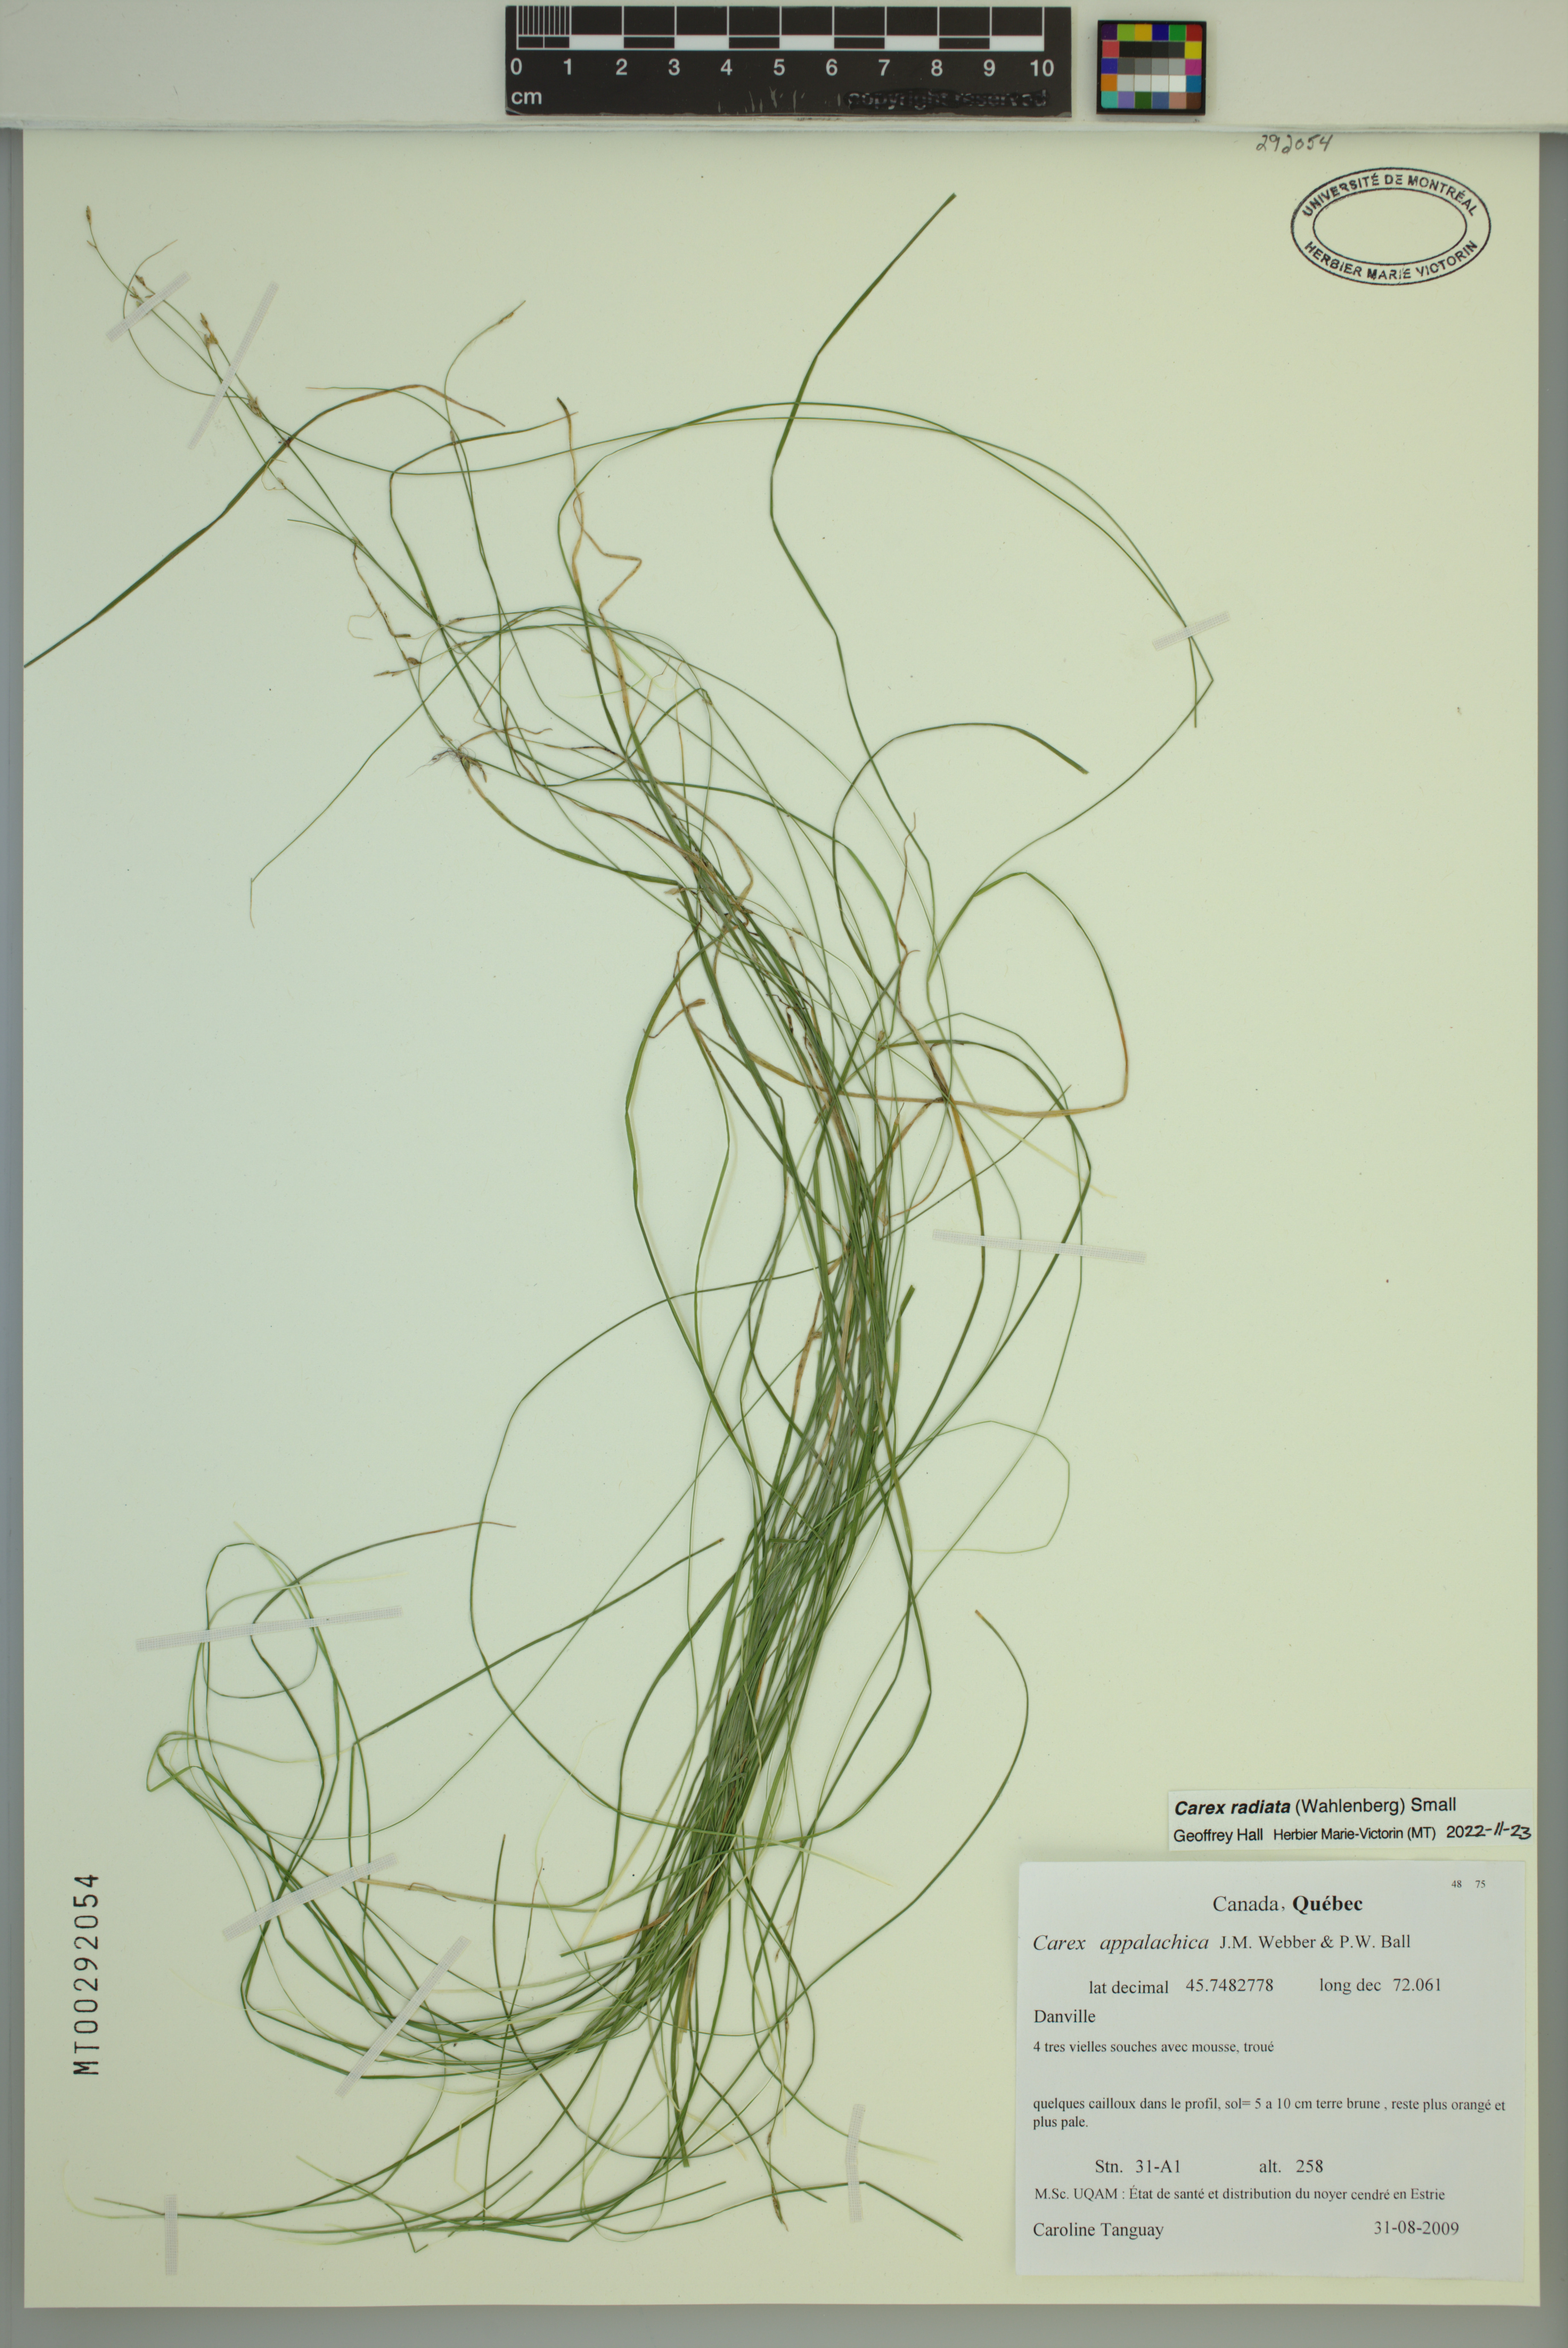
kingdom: Plantae
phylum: Tracheophyta
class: Liliopsida
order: Poales
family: Cyperaceae
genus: Carex
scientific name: Carex radiata
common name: Eastern star sedge
